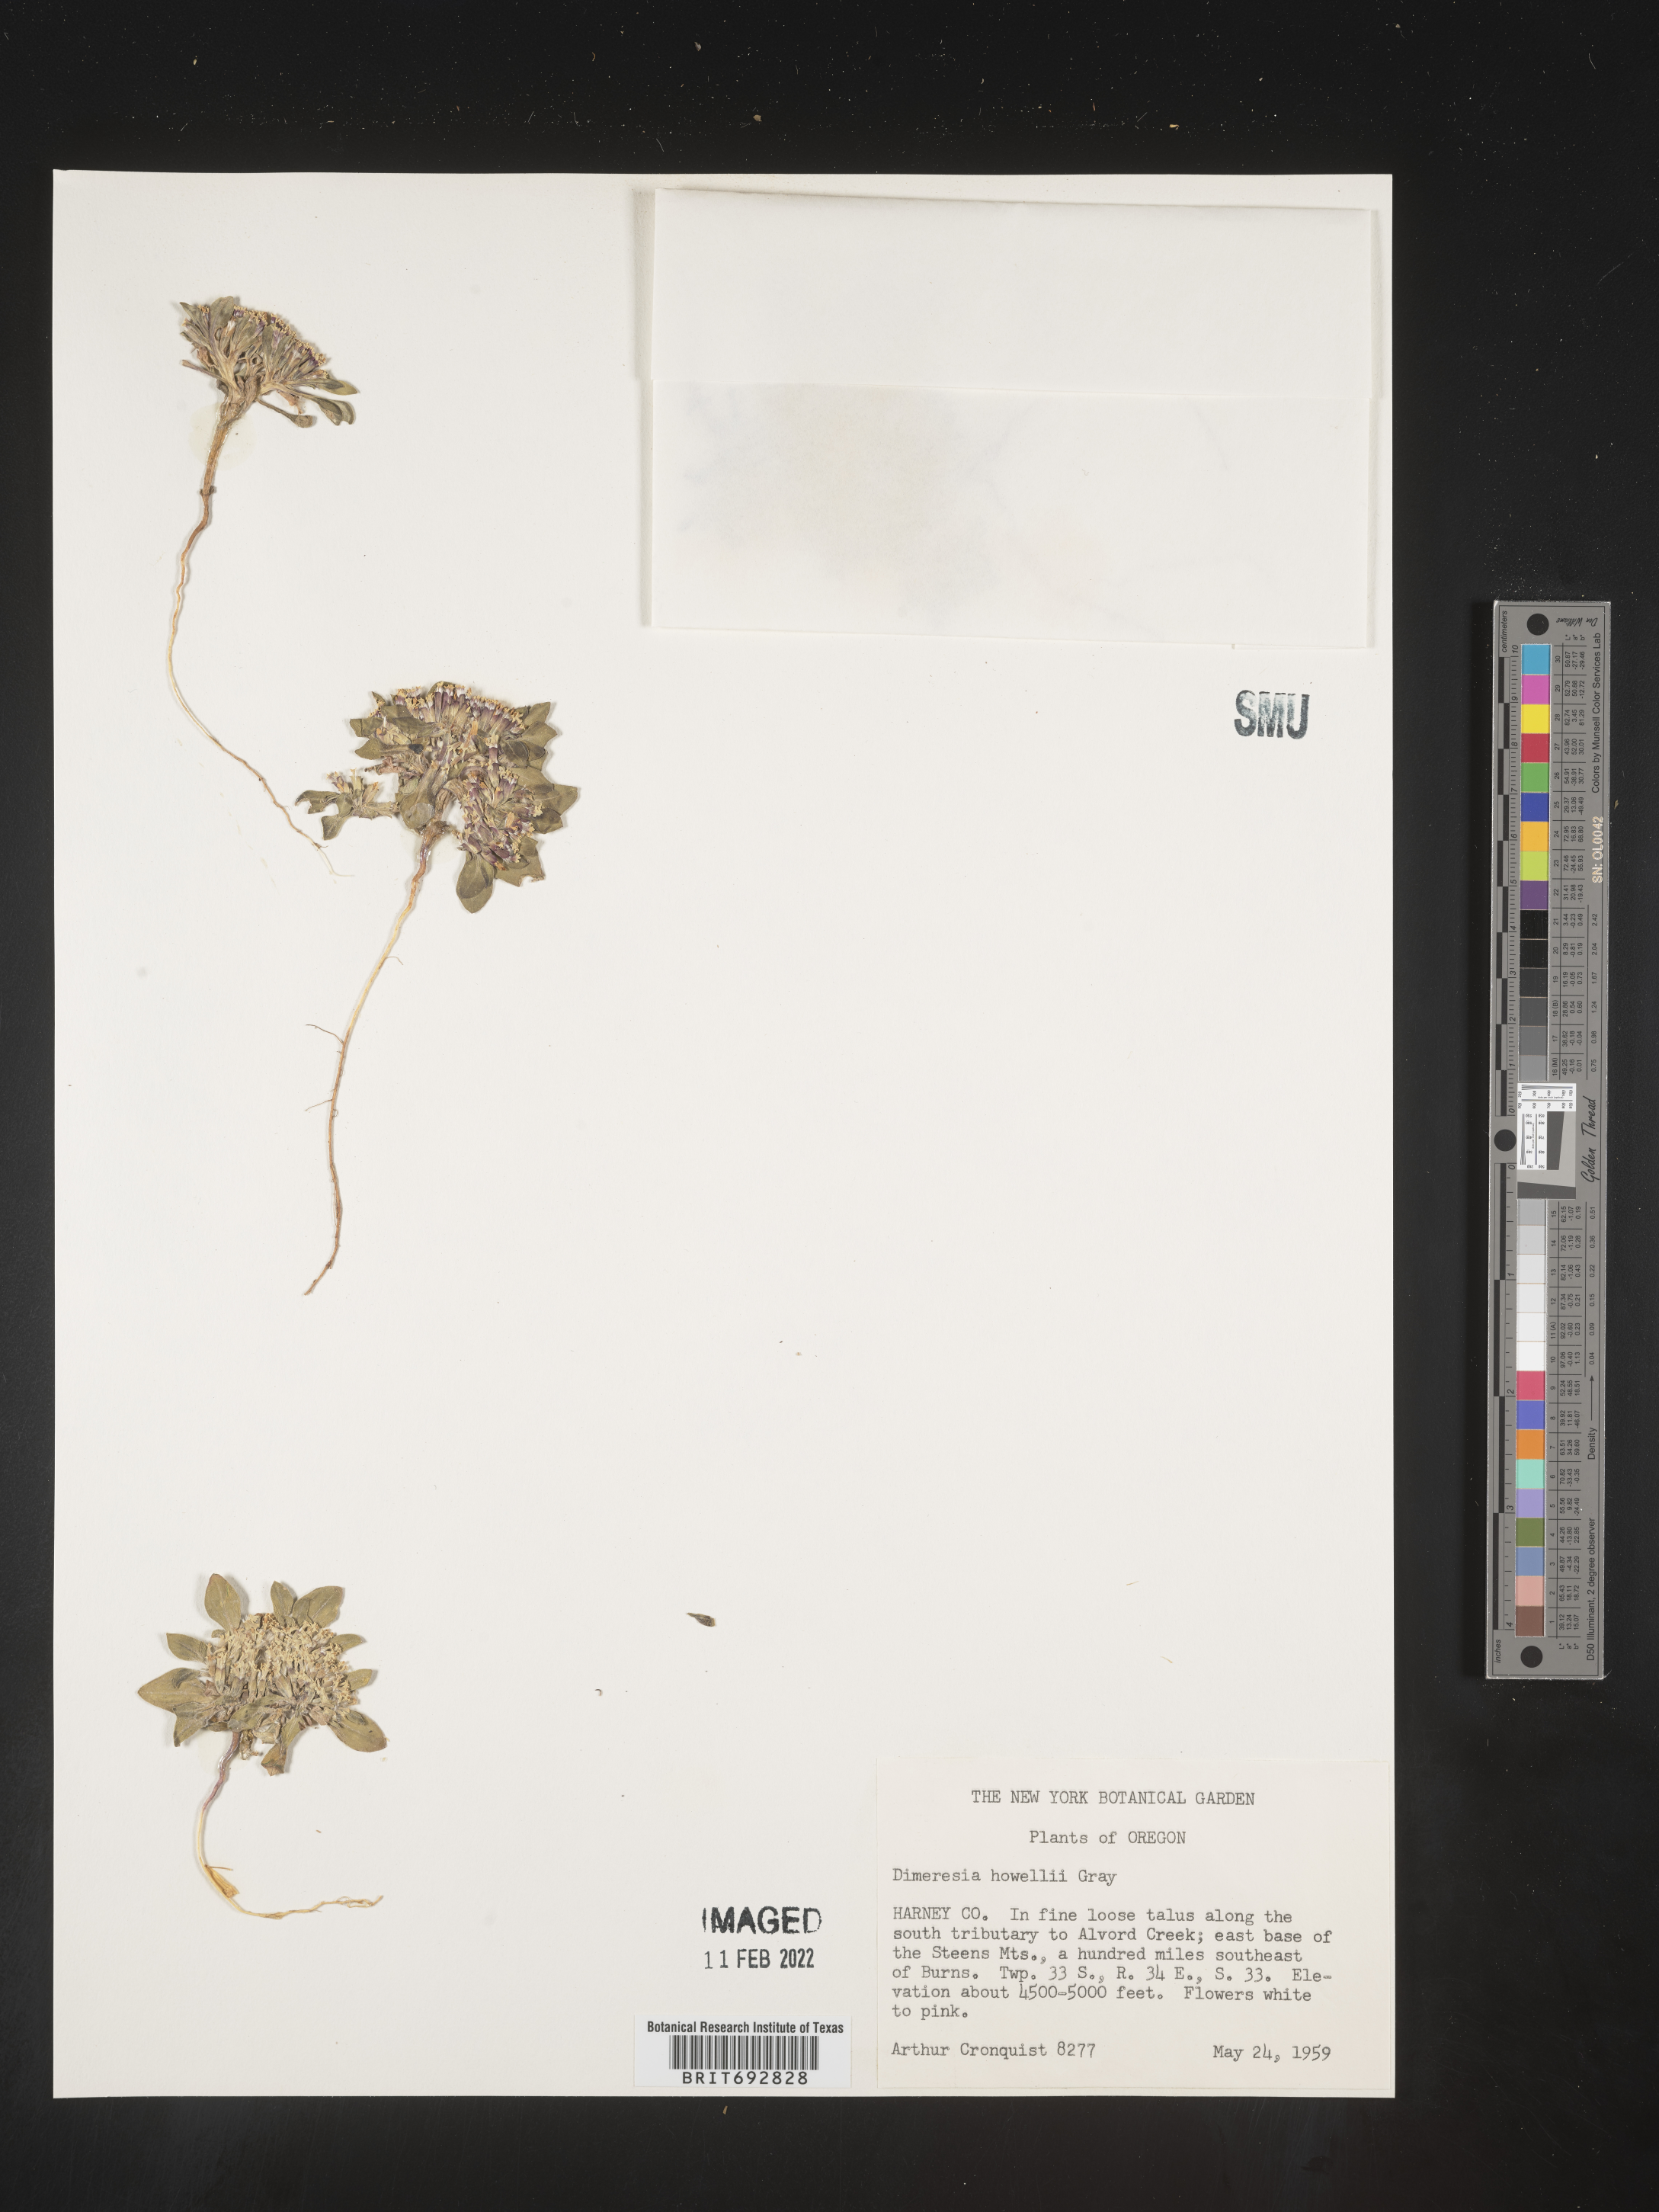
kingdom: Plantae
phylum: Tracheophyta
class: Magnoliopsida
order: Asterales
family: Asteraceae
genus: Dimeresia
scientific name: Dimeresia
